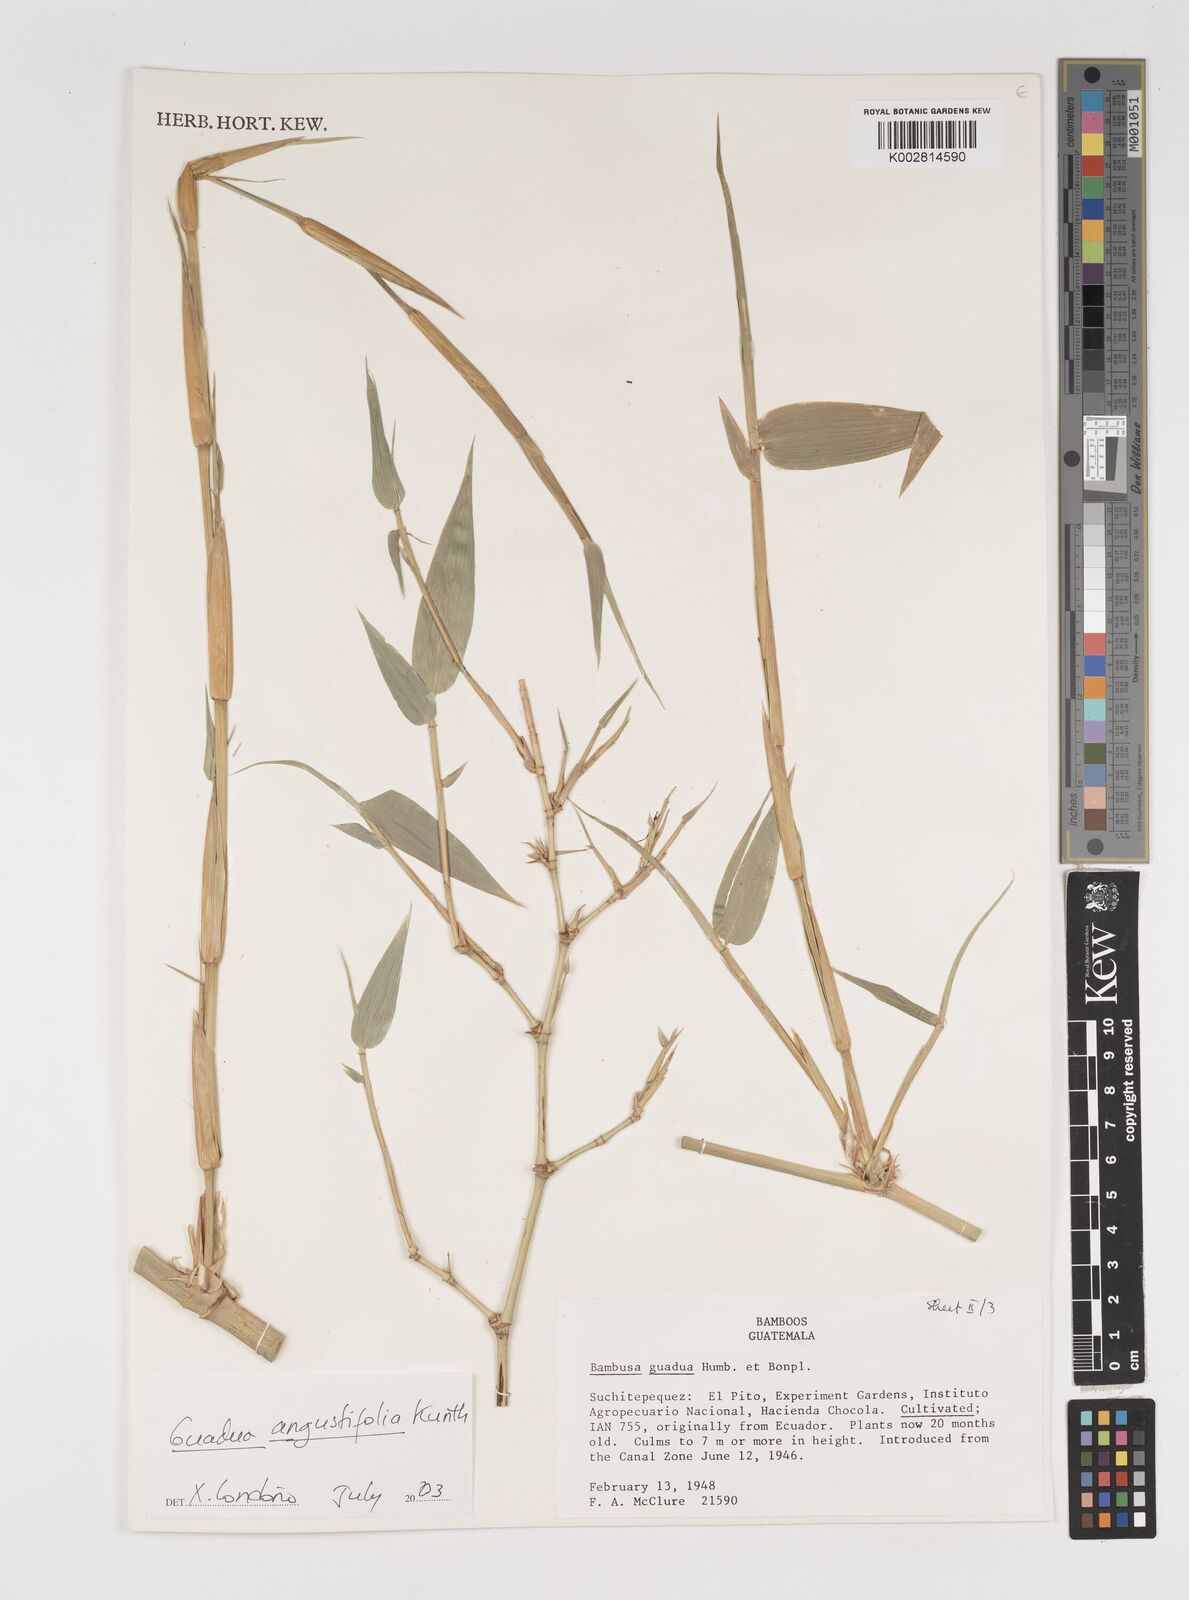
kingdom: Plantae
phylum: Tracheophyta
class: Liliopsida
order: Poales
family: Poaceae
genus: Guadua
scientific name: Guadua
